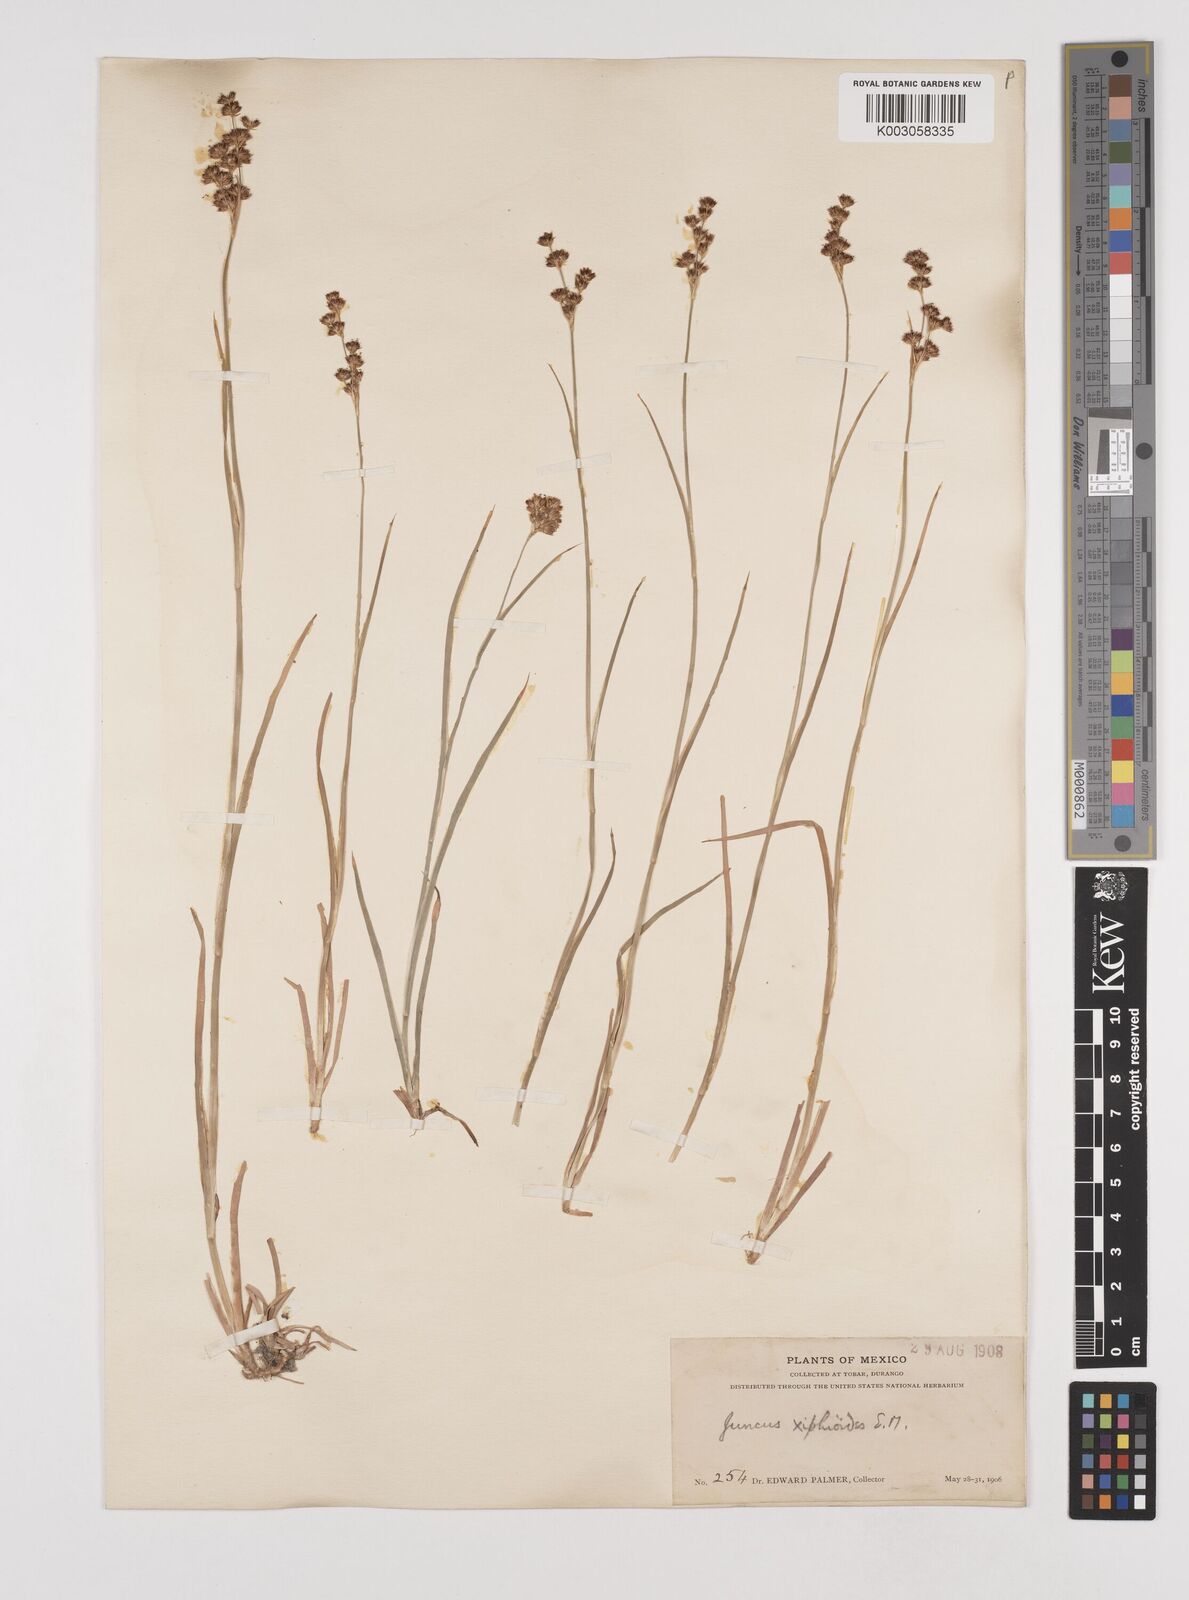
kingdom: Plantae
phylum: Tracheophyta
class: Liliopsida
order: Poales
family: Juncaceae
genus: Juncus
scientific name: Juncus xiphioides
